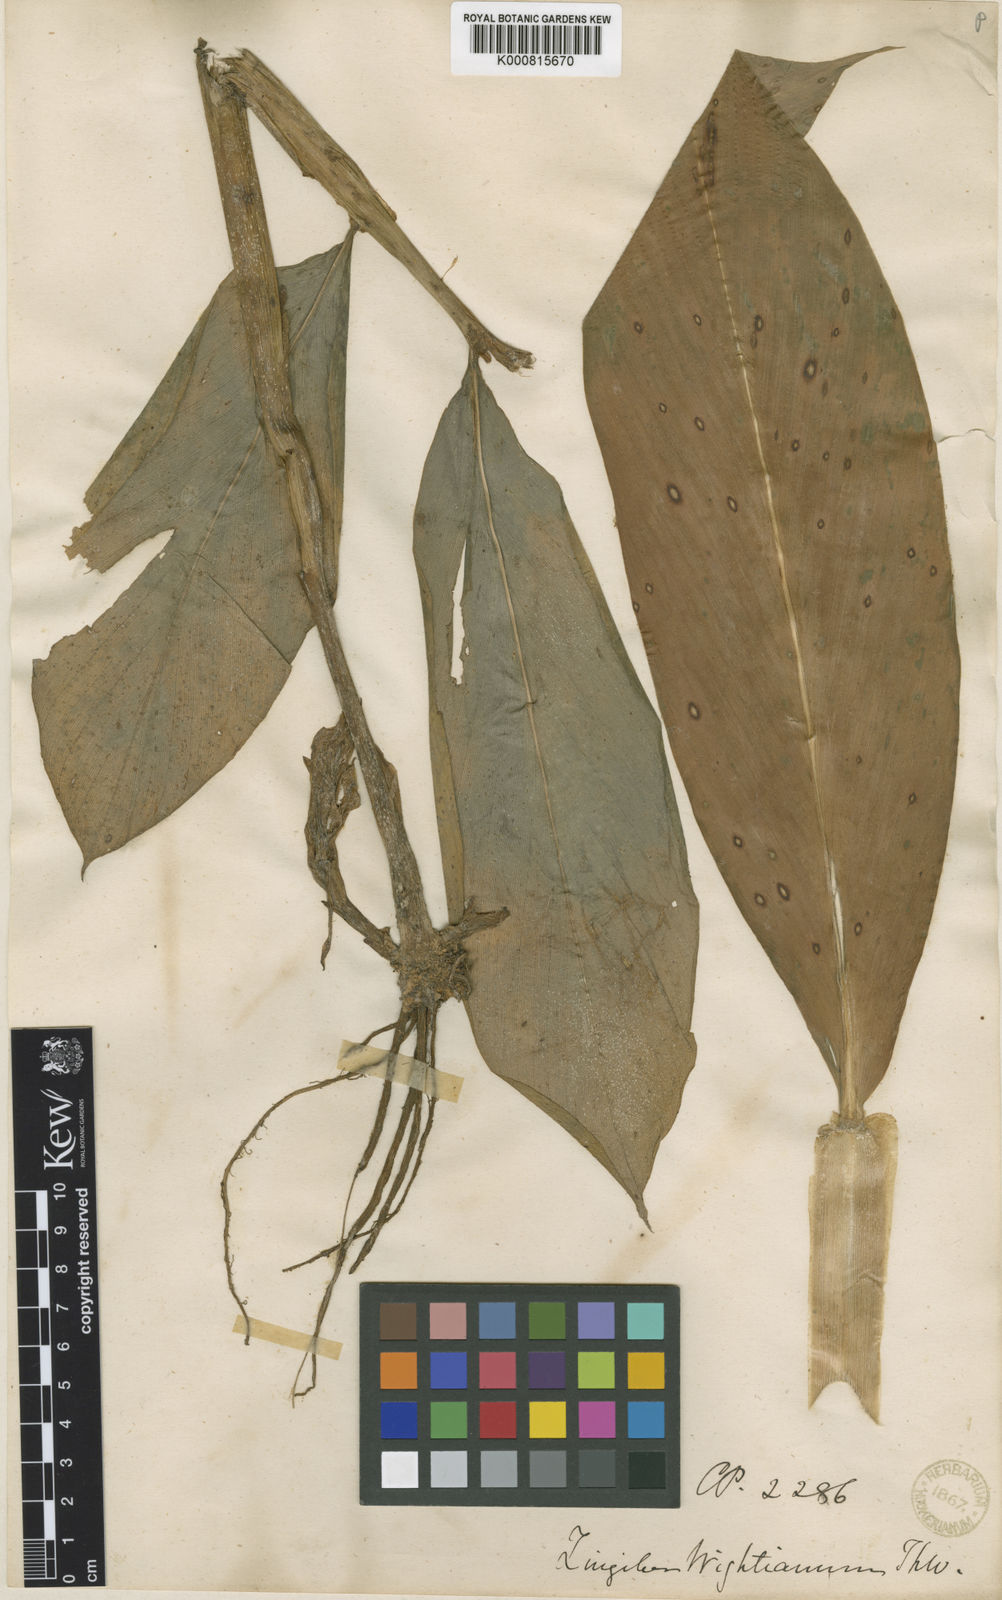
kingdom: Plantae
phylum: Tracheophyta
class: Liliopsida
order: Zingiberales
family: Zingiberaceae
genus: Zingiber
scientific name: Zingiber wightianum
